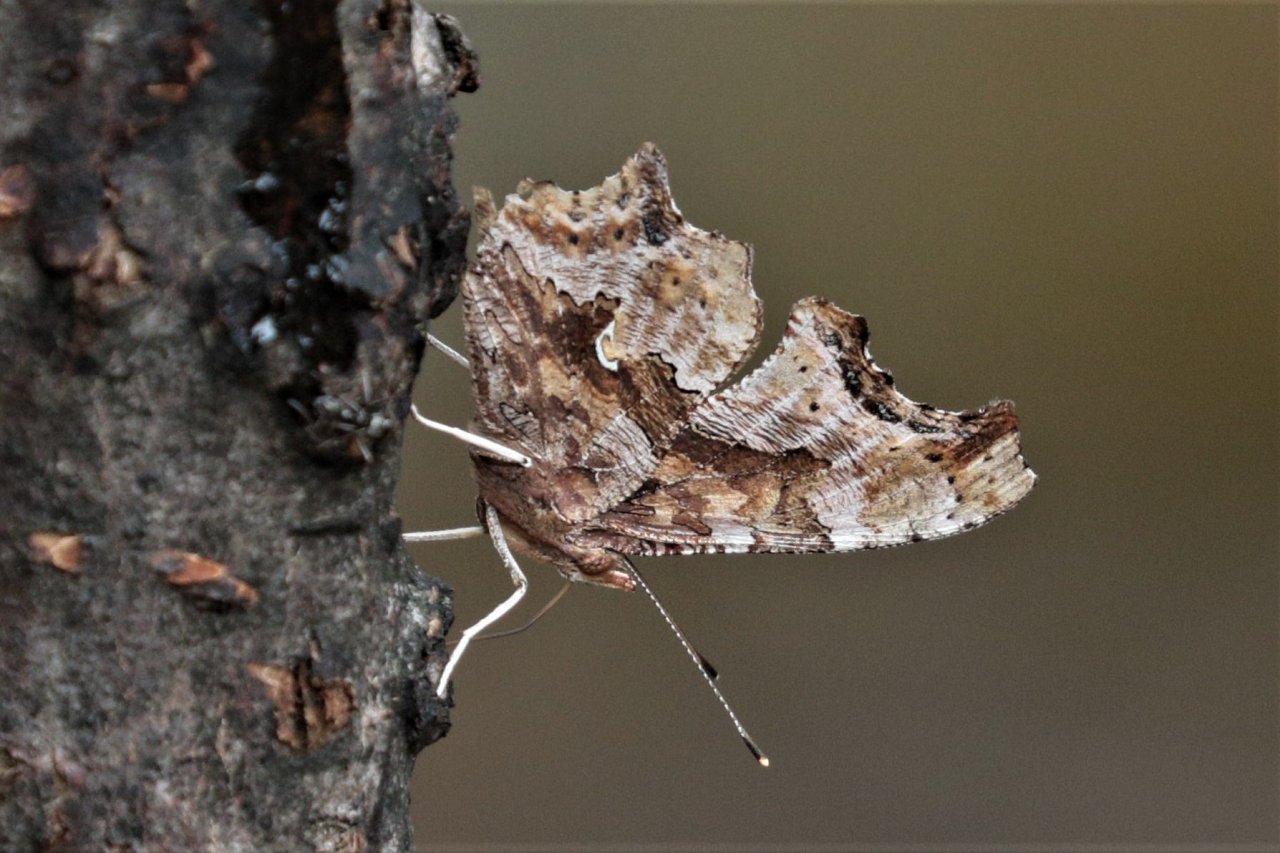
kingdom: Animalia
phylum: Arthropoda
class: Insecta
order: Lepidoptera
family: Nymphalidae
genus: Polygonia
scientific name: Polygonia comma
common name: Eastern Comma
